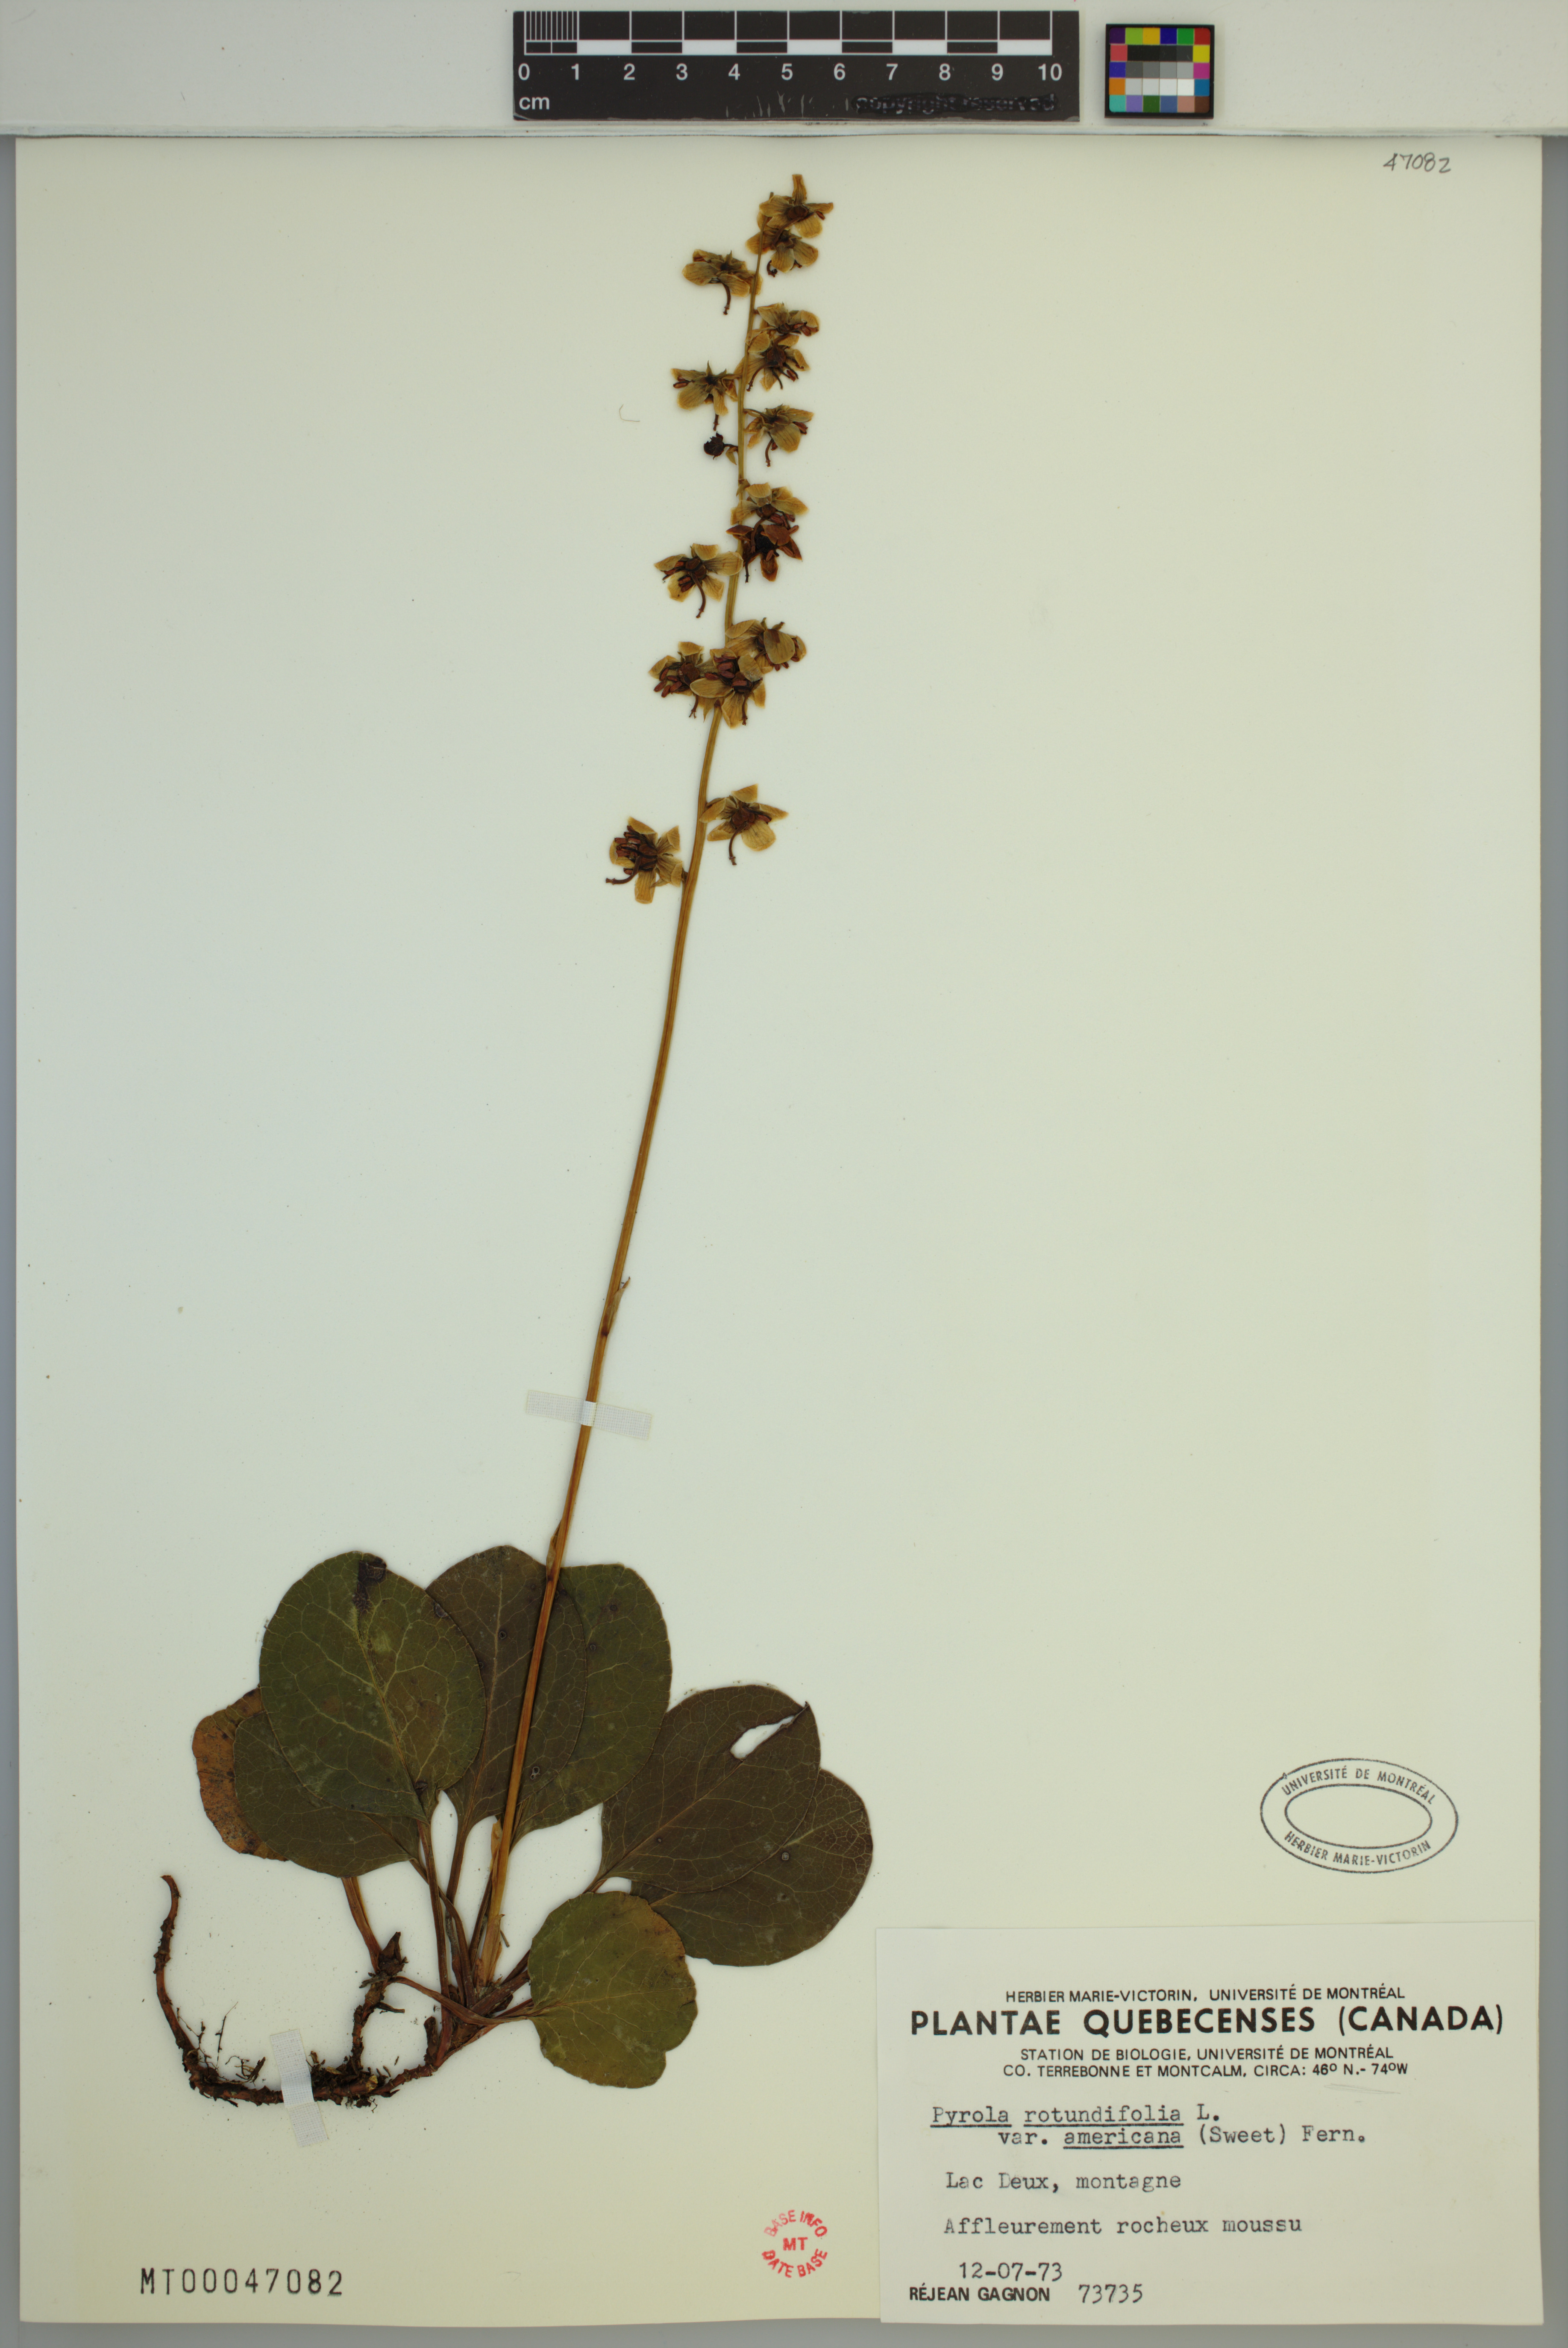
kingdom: Plantae
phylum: Tracheophyta
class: Magnoliopsida
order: Ericales
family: Ericaceae
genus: Pyrola
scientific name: Pyrola americana
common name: American wintergreen
